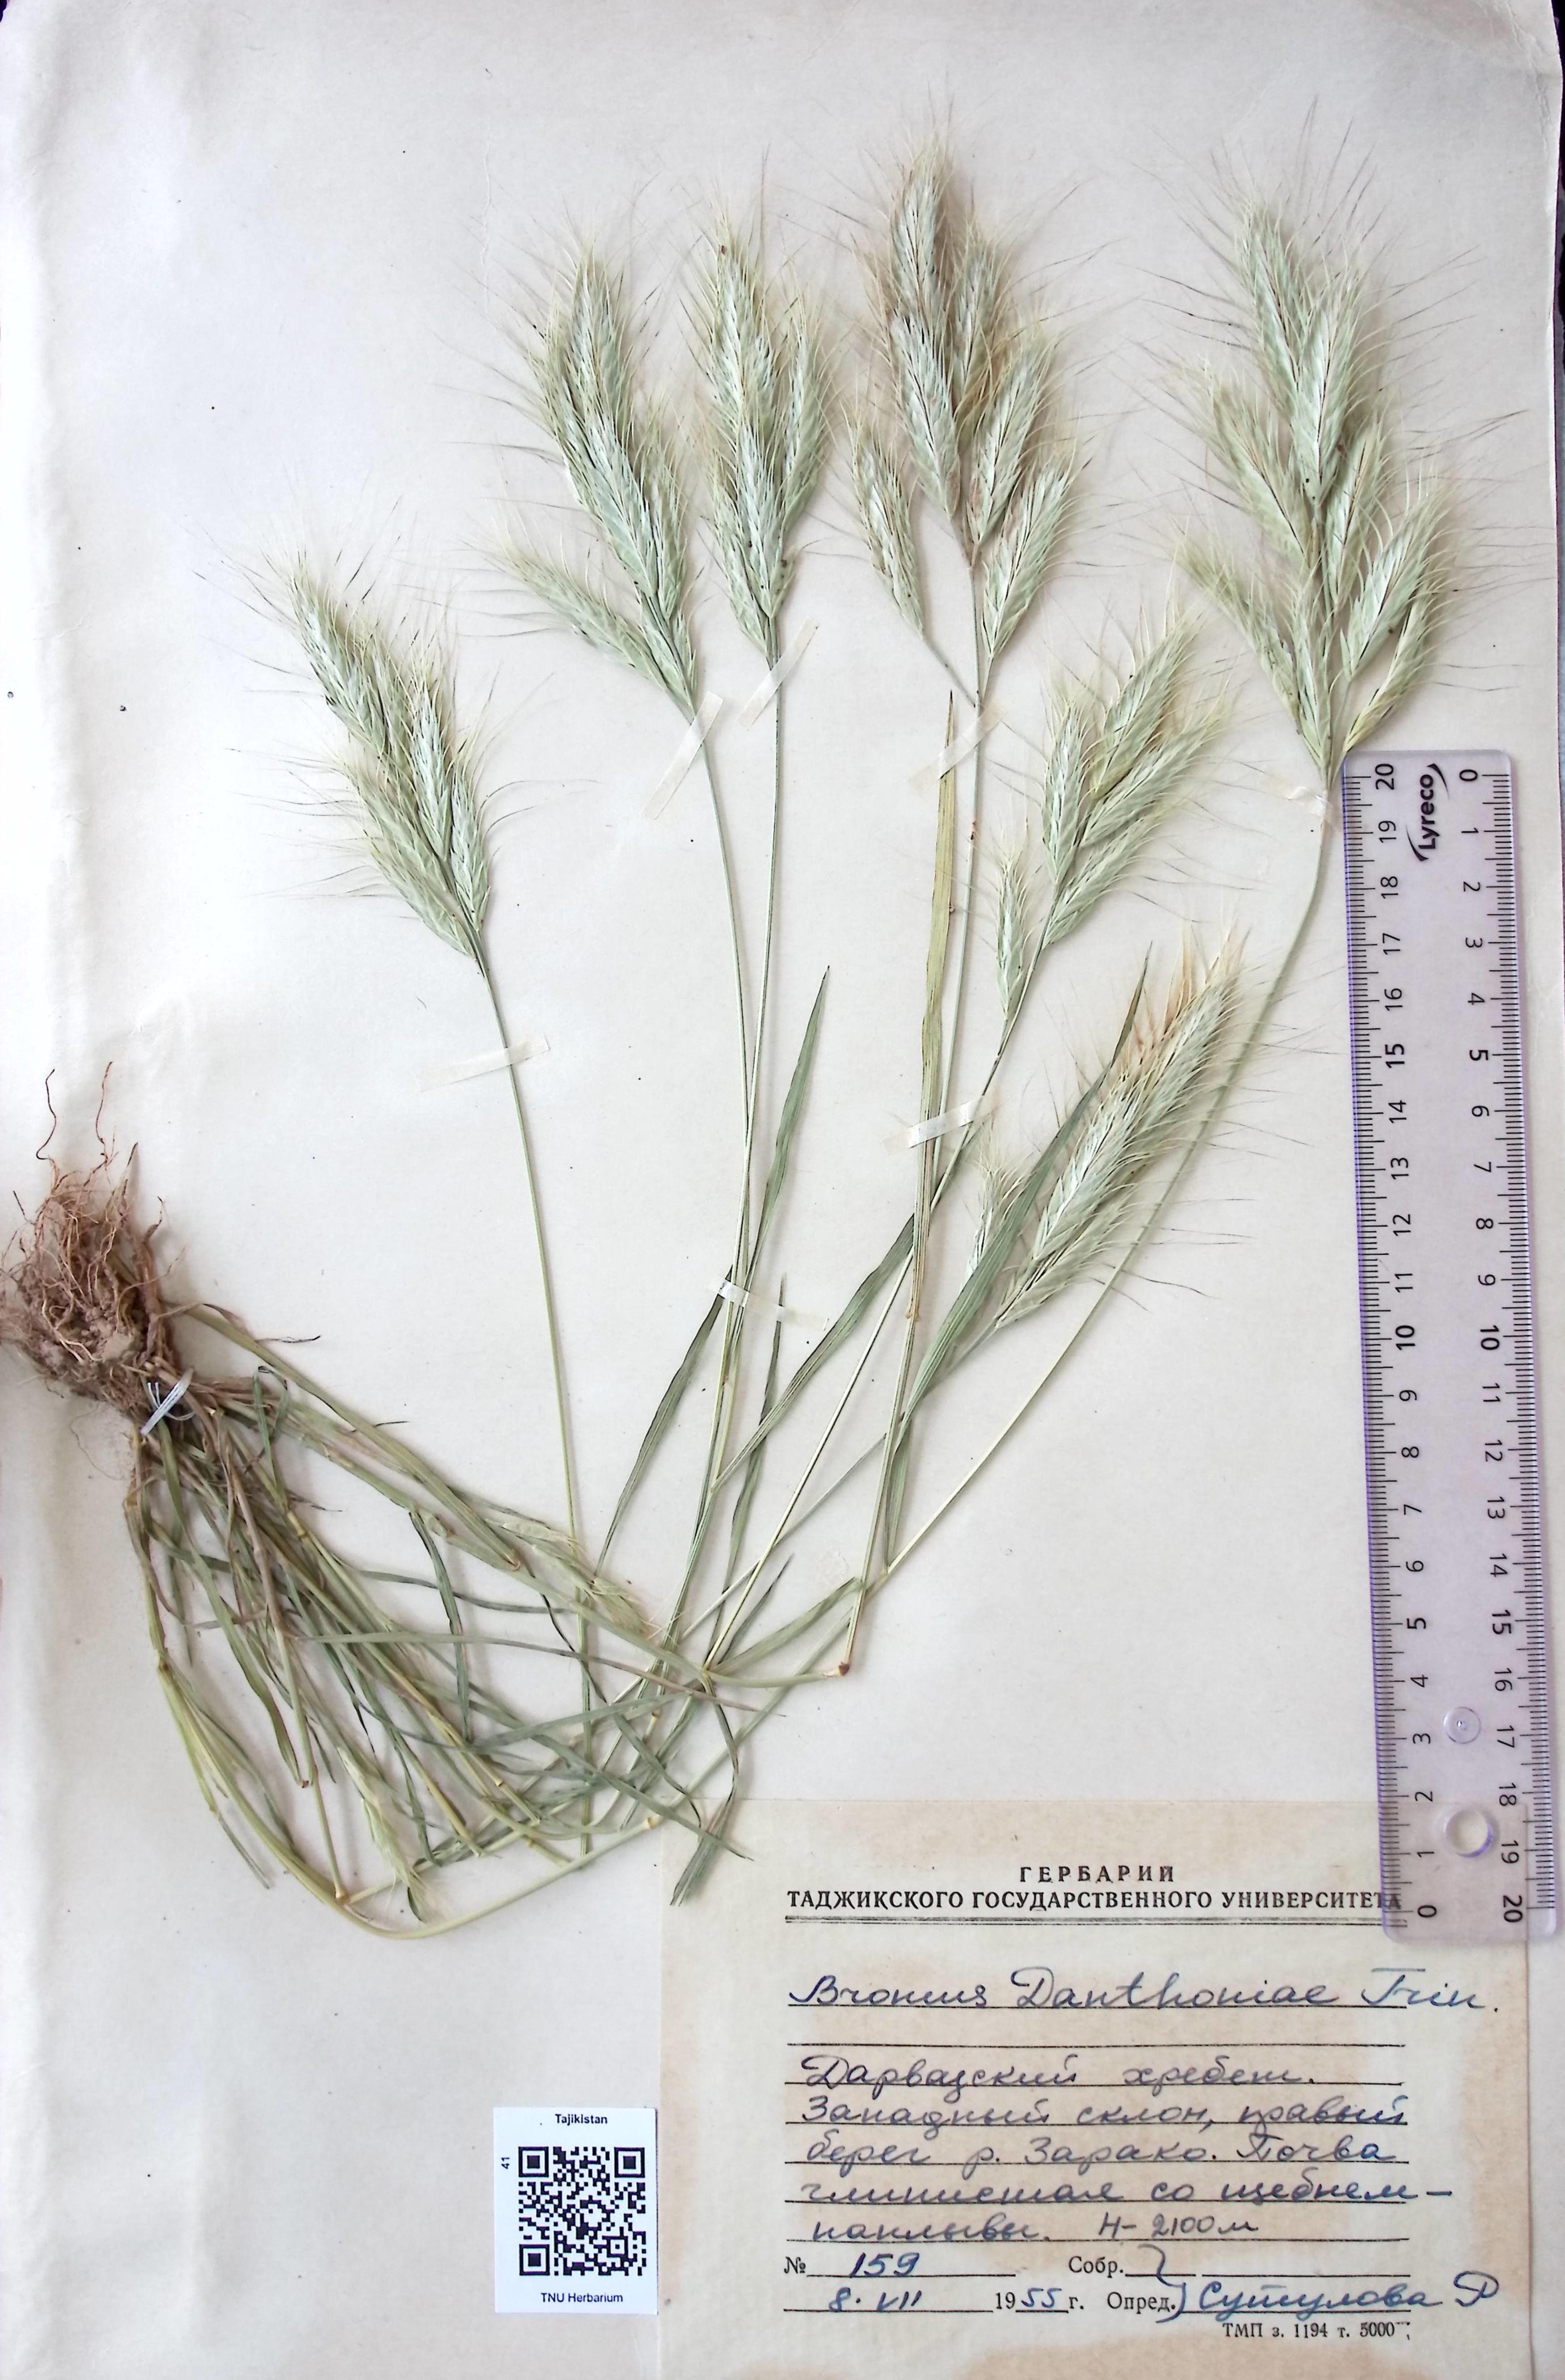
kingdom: Plantae
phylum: Tracheophyta
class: Liliopsida
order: Poales
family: Poaceae
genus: Bromus
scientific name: Bromus danthoniae
